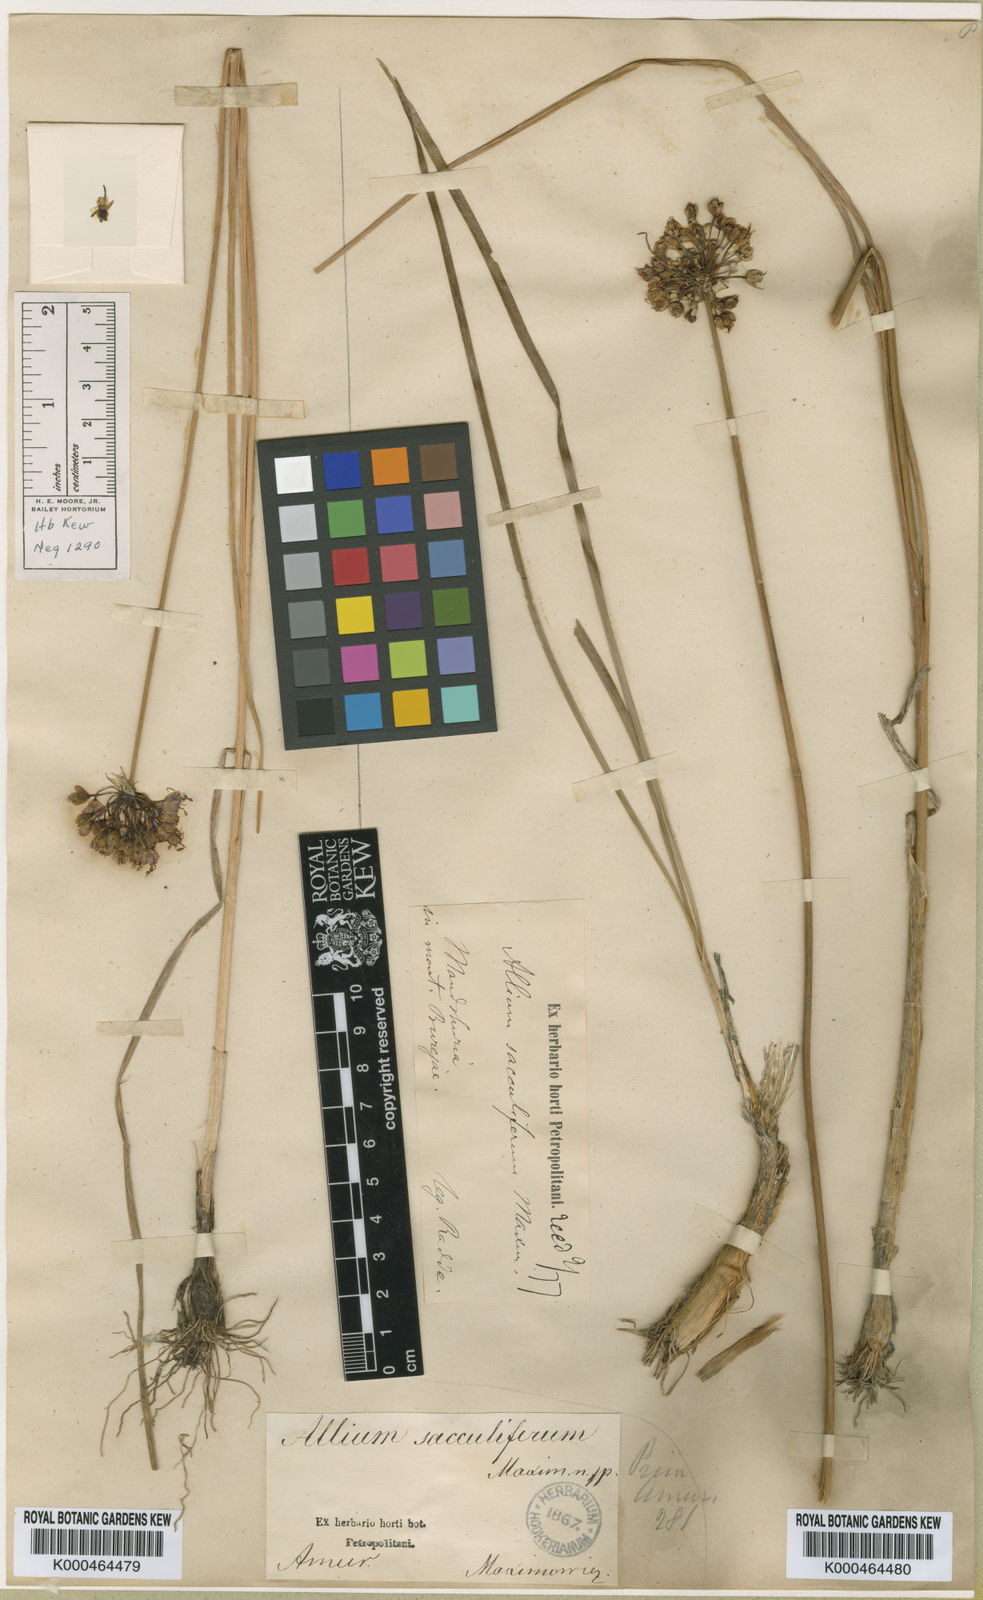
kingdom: Plantae
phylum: Tracheophyta
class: Liliopsida
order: Asparagales
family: Amaryllidaceae
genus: Allium
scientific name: Allium clathratum
